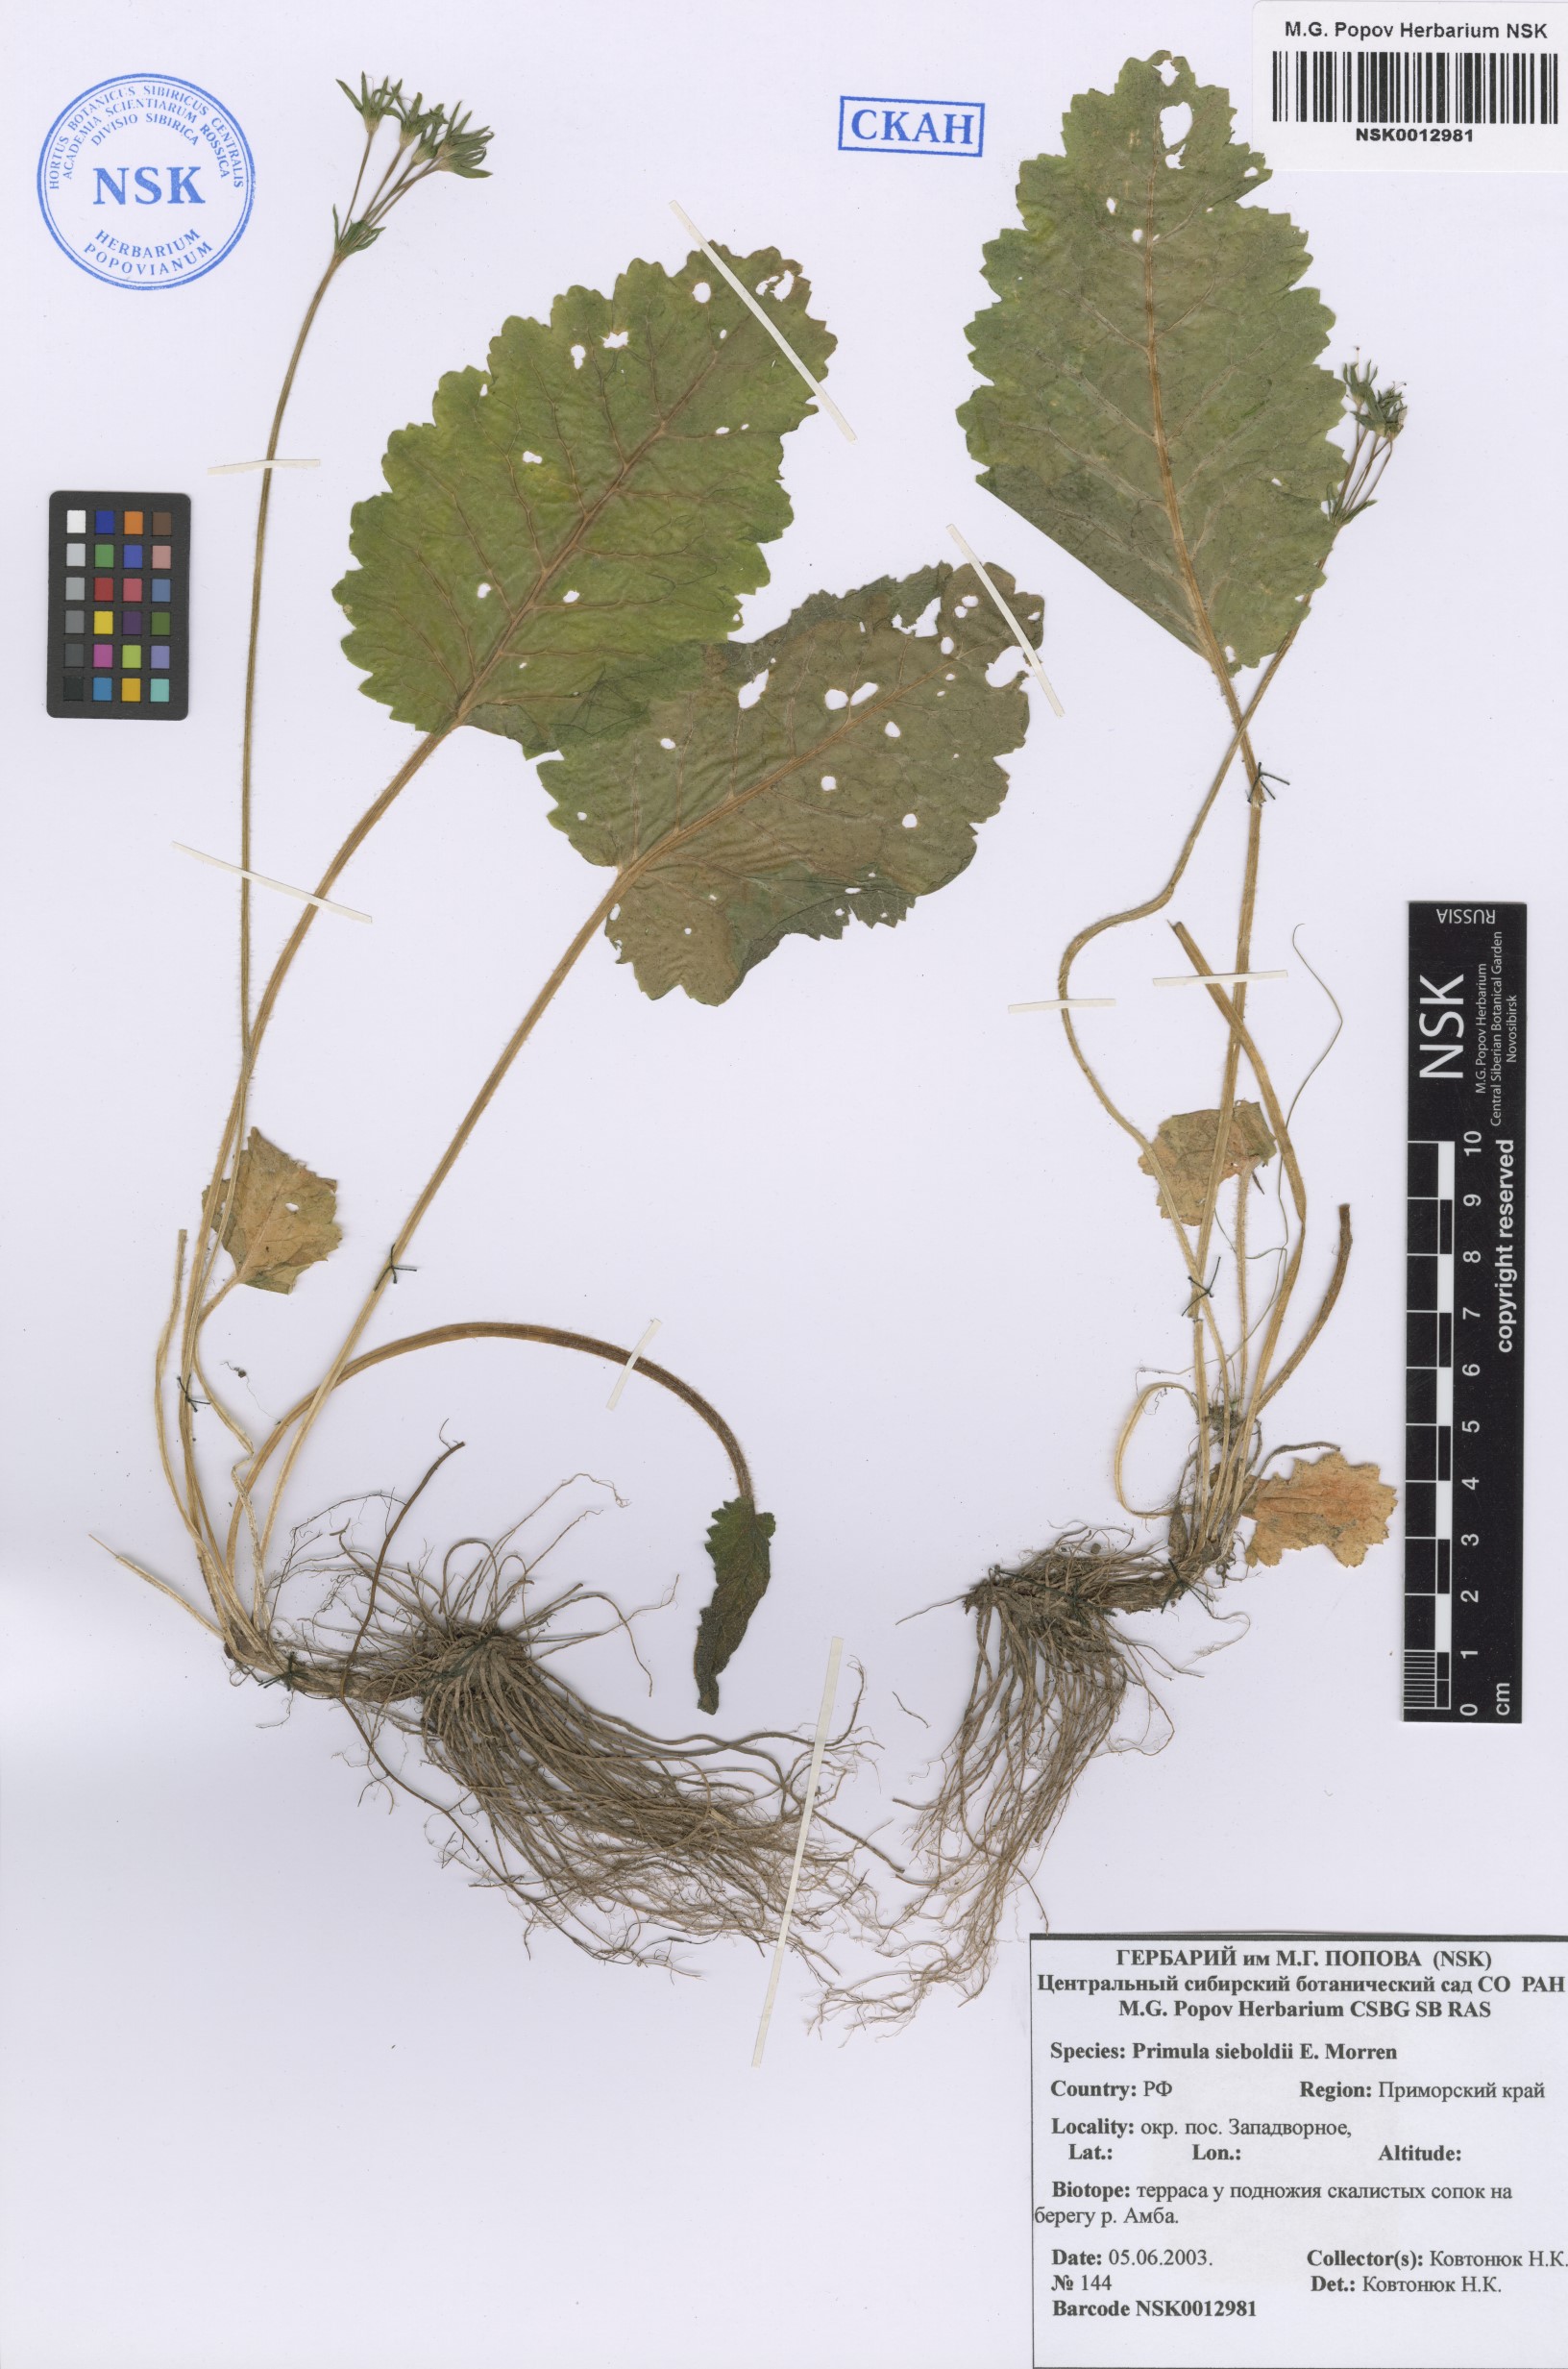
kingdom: Plantae
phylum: Tracheophyta
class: Magnoliopsida
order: Ericales
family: Primulaceae
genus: Primula
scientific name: Primula sieboldii
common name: Japanese primrose
